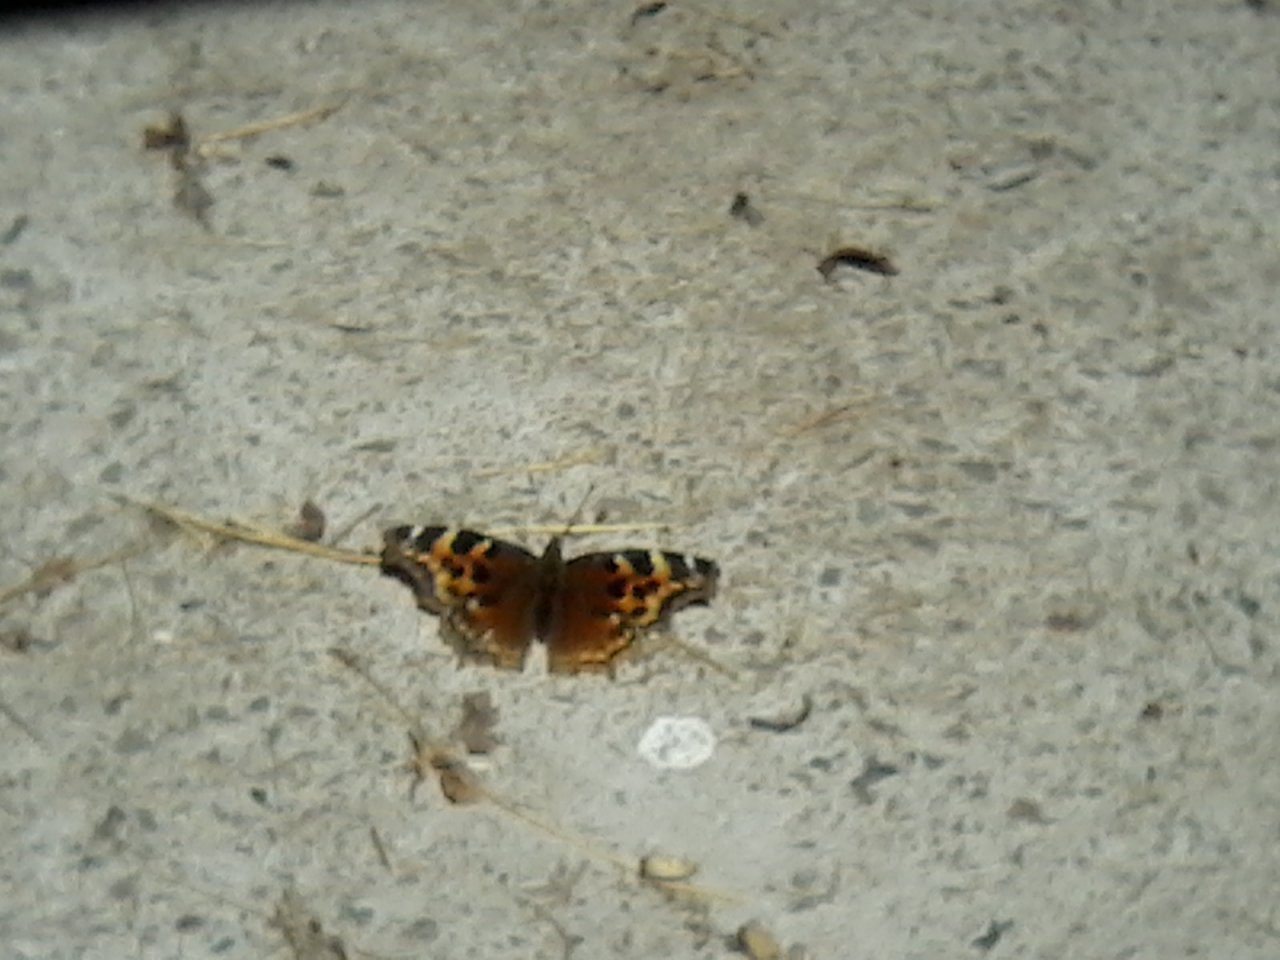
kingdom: Animalia
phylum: Arthropoda
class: Insecta
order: Lepidoptera
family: Nymphalidae
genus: Polygonia
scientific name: Polygonia vaualbum
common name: Compton Tortoiseshell
